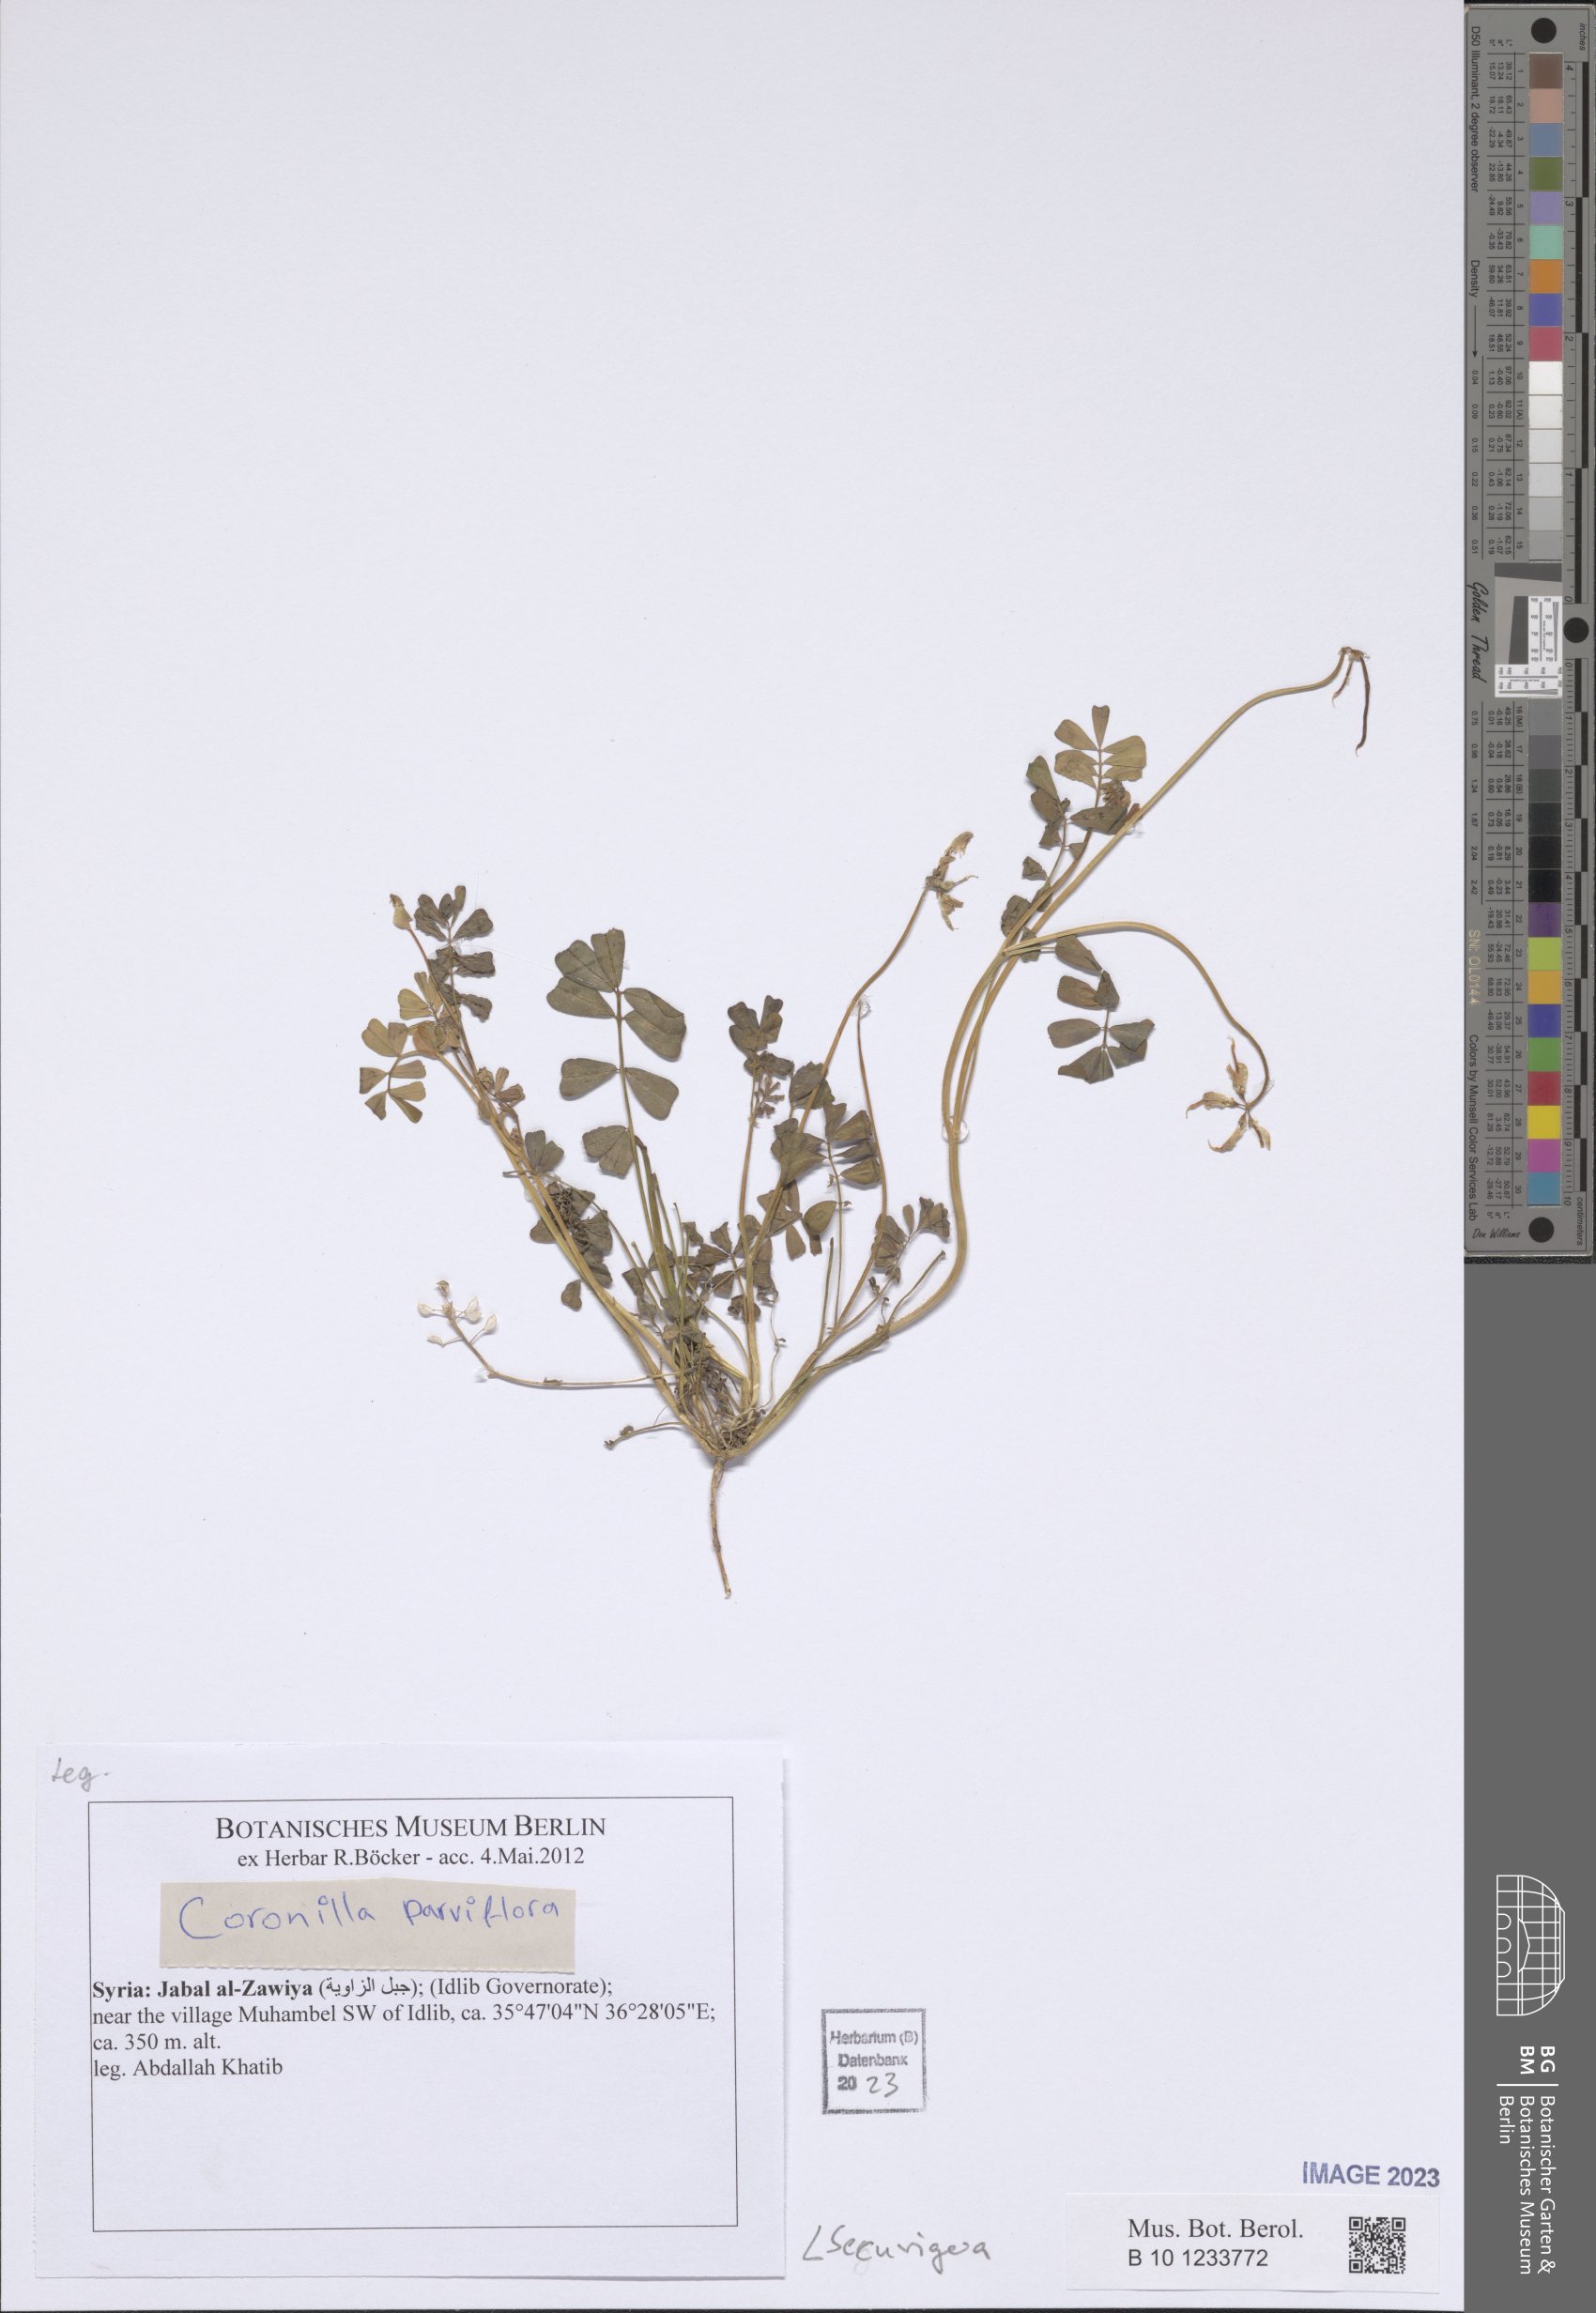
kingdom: Animalia
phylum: Arthropoda
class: Insecta
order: Orthoptera
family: Romaleidae
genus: Securigera
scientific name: Securigera
